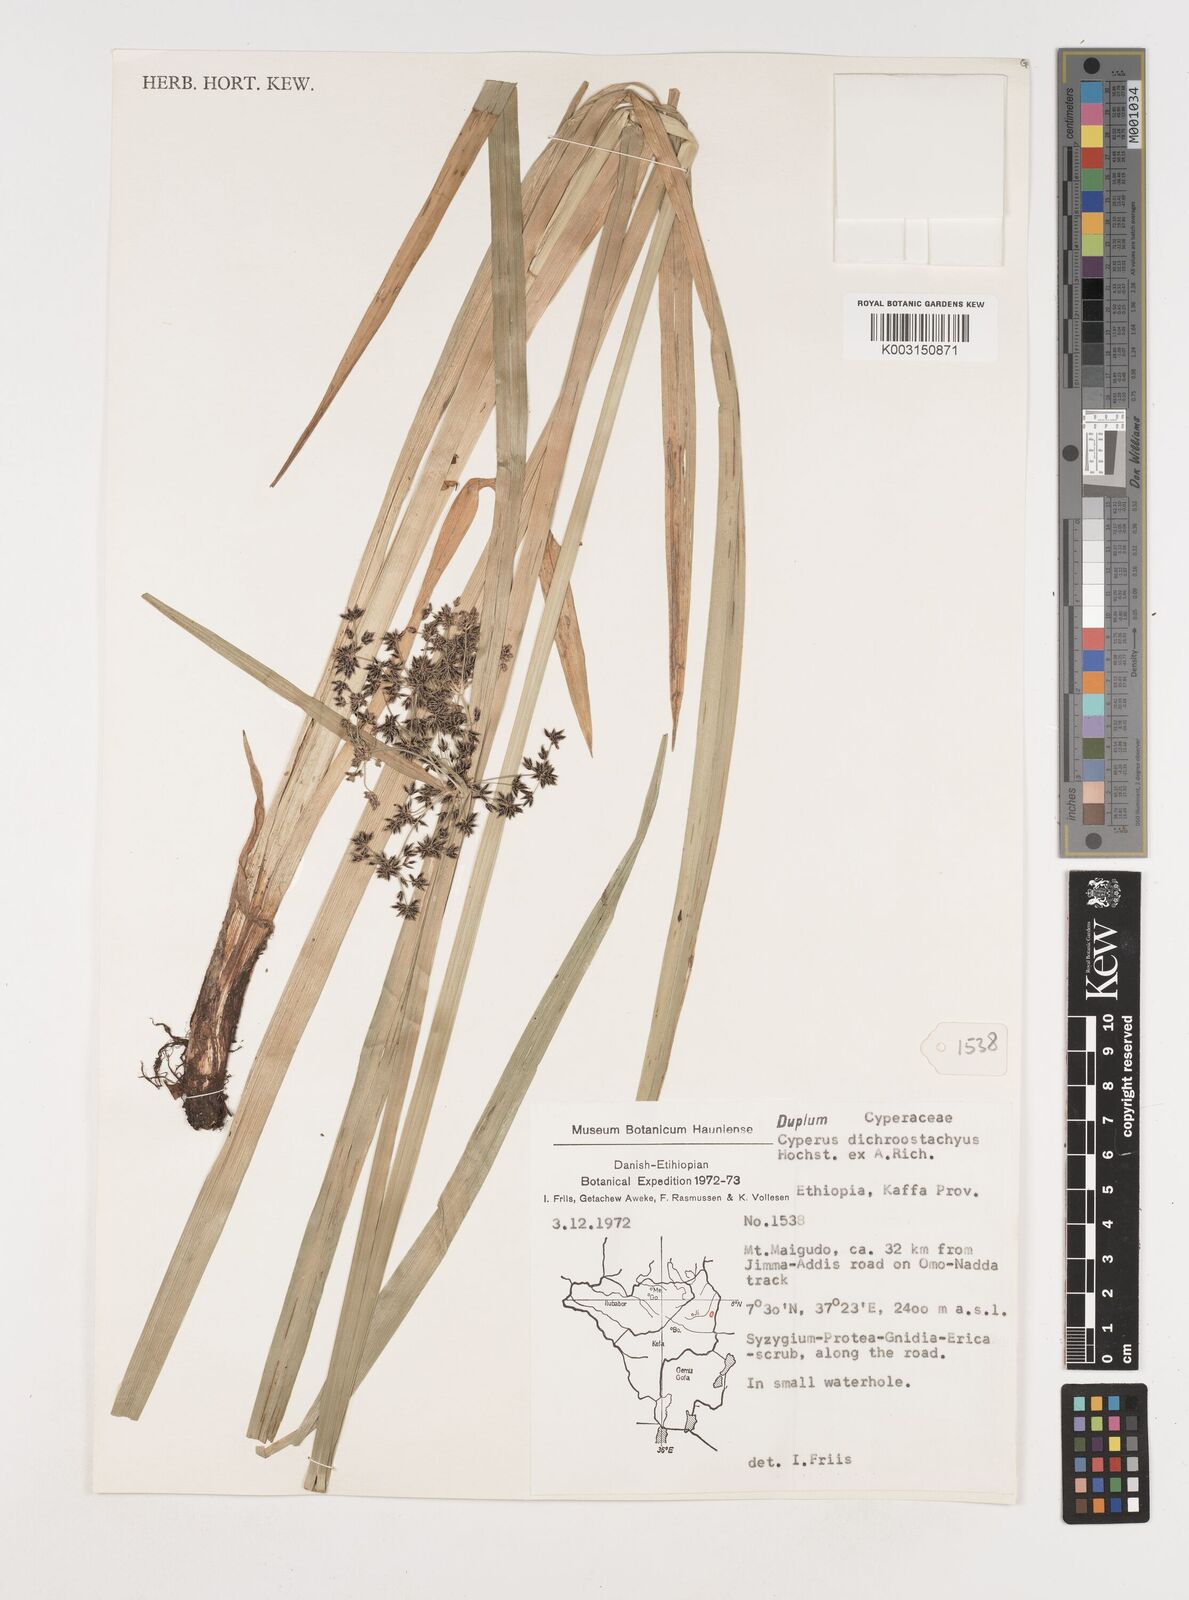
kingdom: Plantae
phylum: Tracheophyta
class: Liliopsida
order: Poales
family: Cyperaceae
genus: Cyperus
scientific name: Cyperus dichrostachyus
